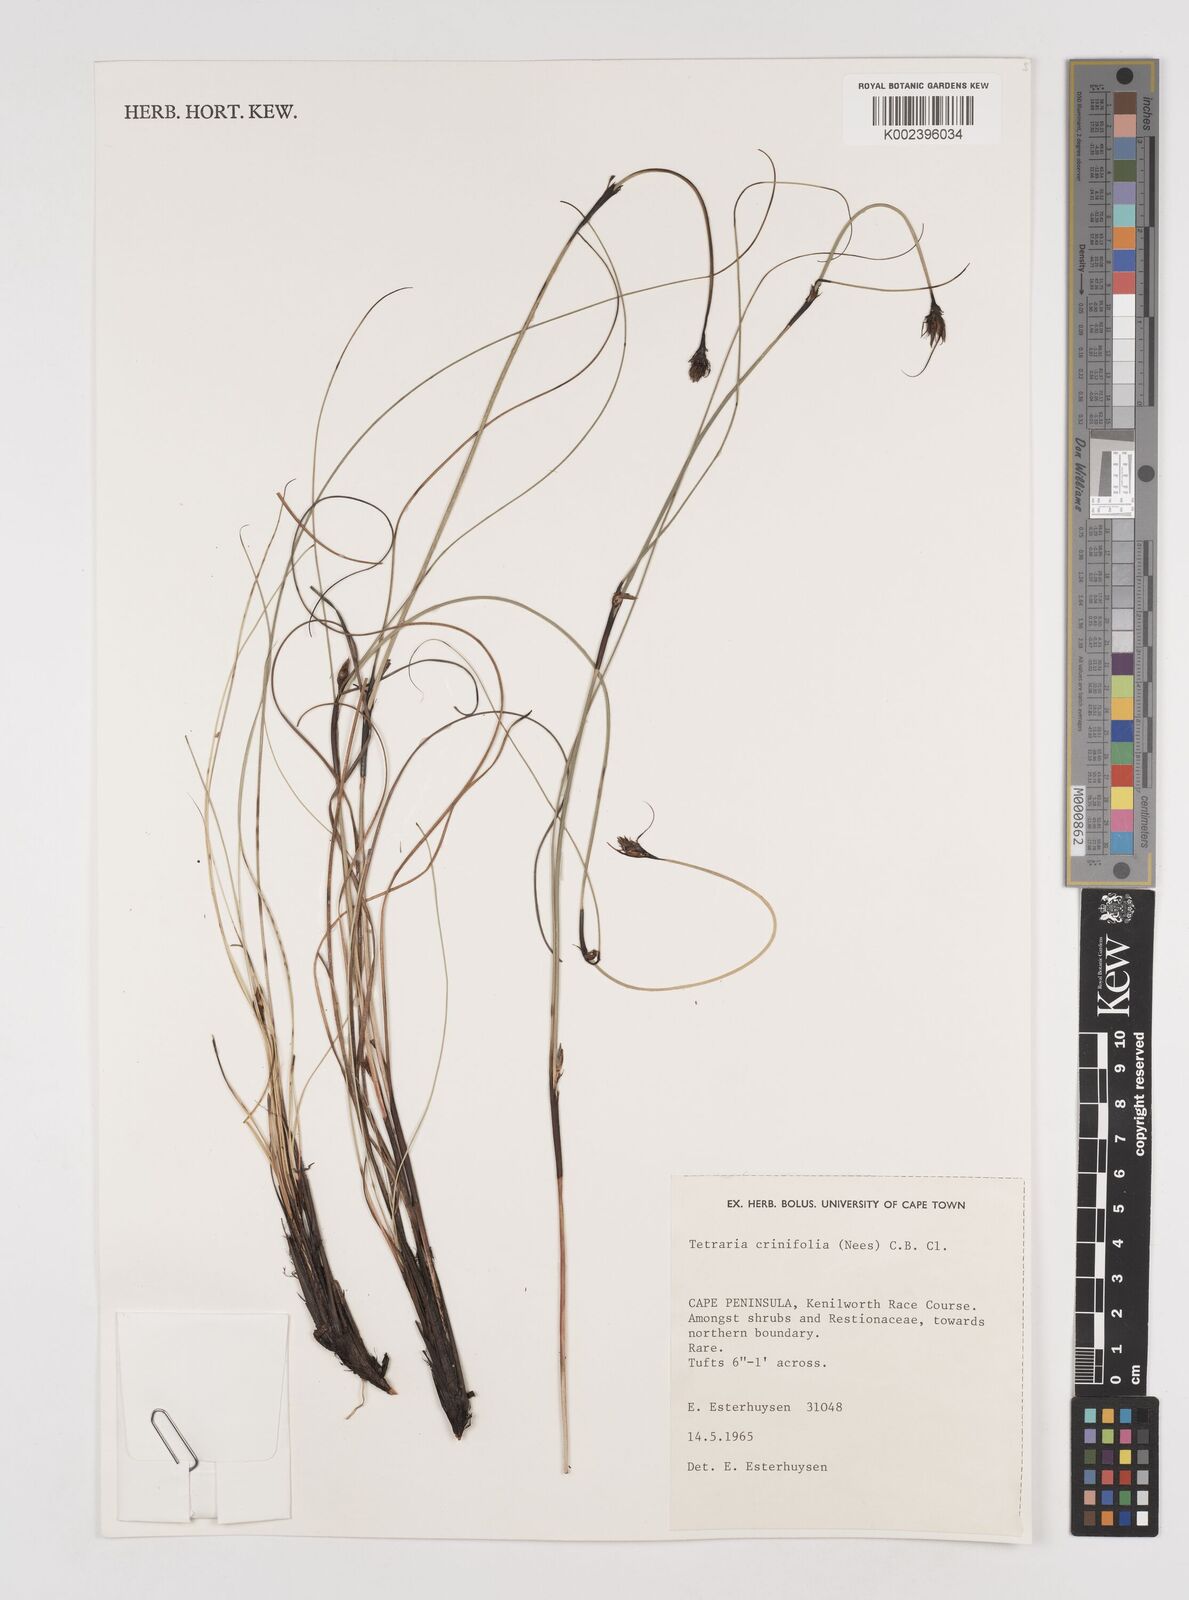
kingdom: Plantae
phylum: Tracheophyta
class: Liliopsida
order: Poales
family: Cyperaceae
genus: Tetraria
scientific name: Tetraria crinifolia
